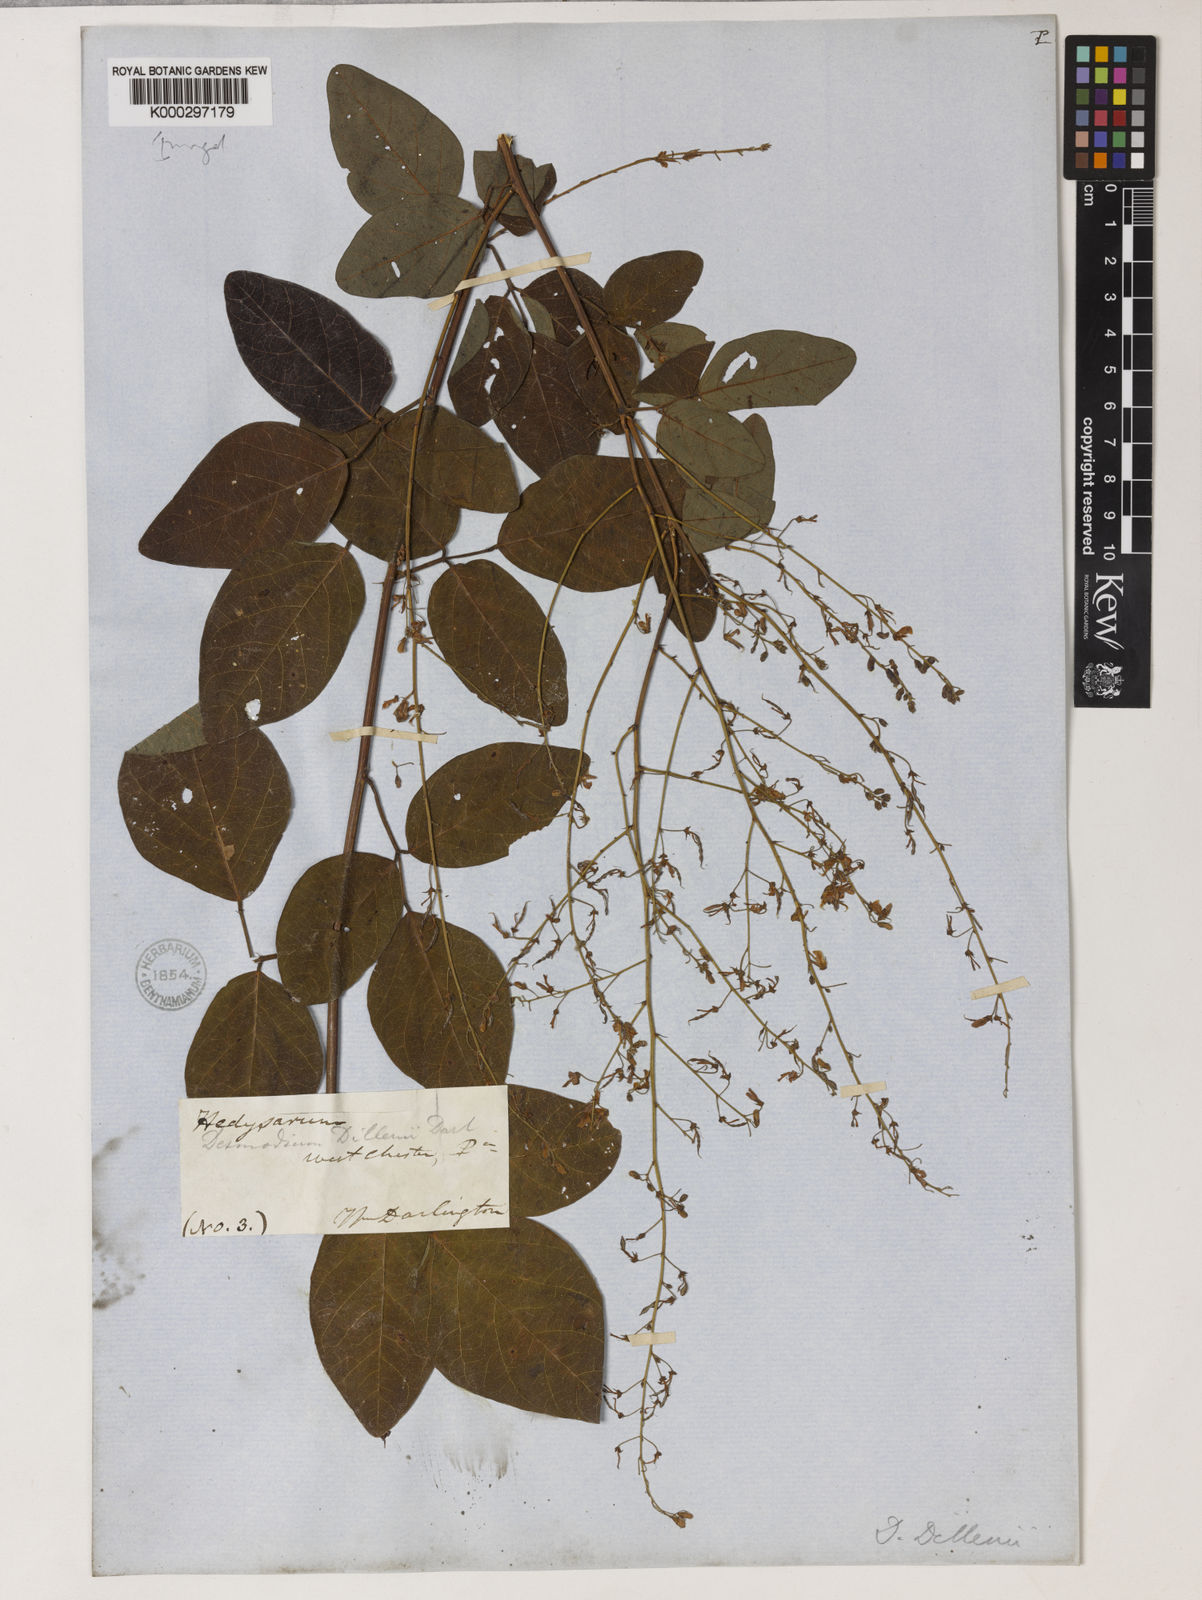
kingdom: Plantae
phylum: Tracheophyta
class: Magnoliopsida
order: Fabales
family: Fabaceae
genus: Desmodium
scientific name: Desmodium perplexum
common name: Perplexed tick trefoil
